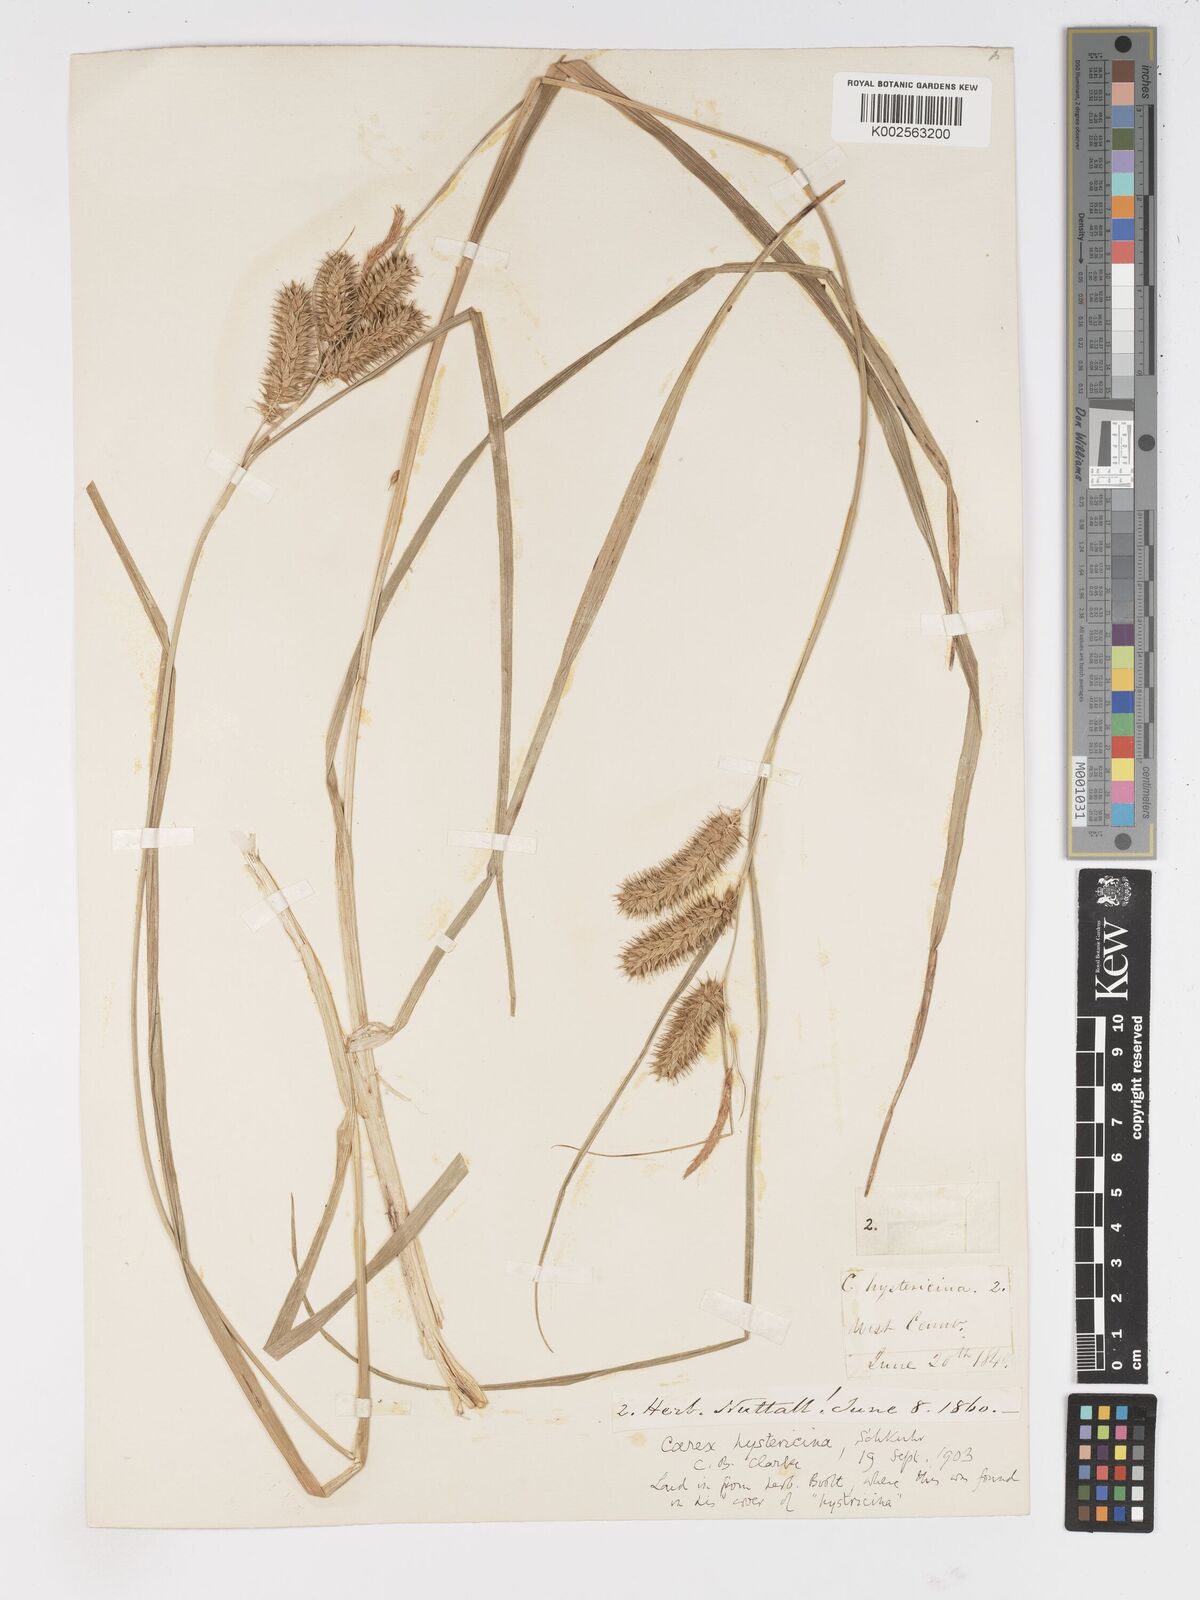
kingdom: Plantae
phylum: Tracheophyta
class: Liliopsida
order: Poales
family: Cyperaceae
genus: Carex
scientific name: Carex hystericina
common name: Bottlebrush sedge
